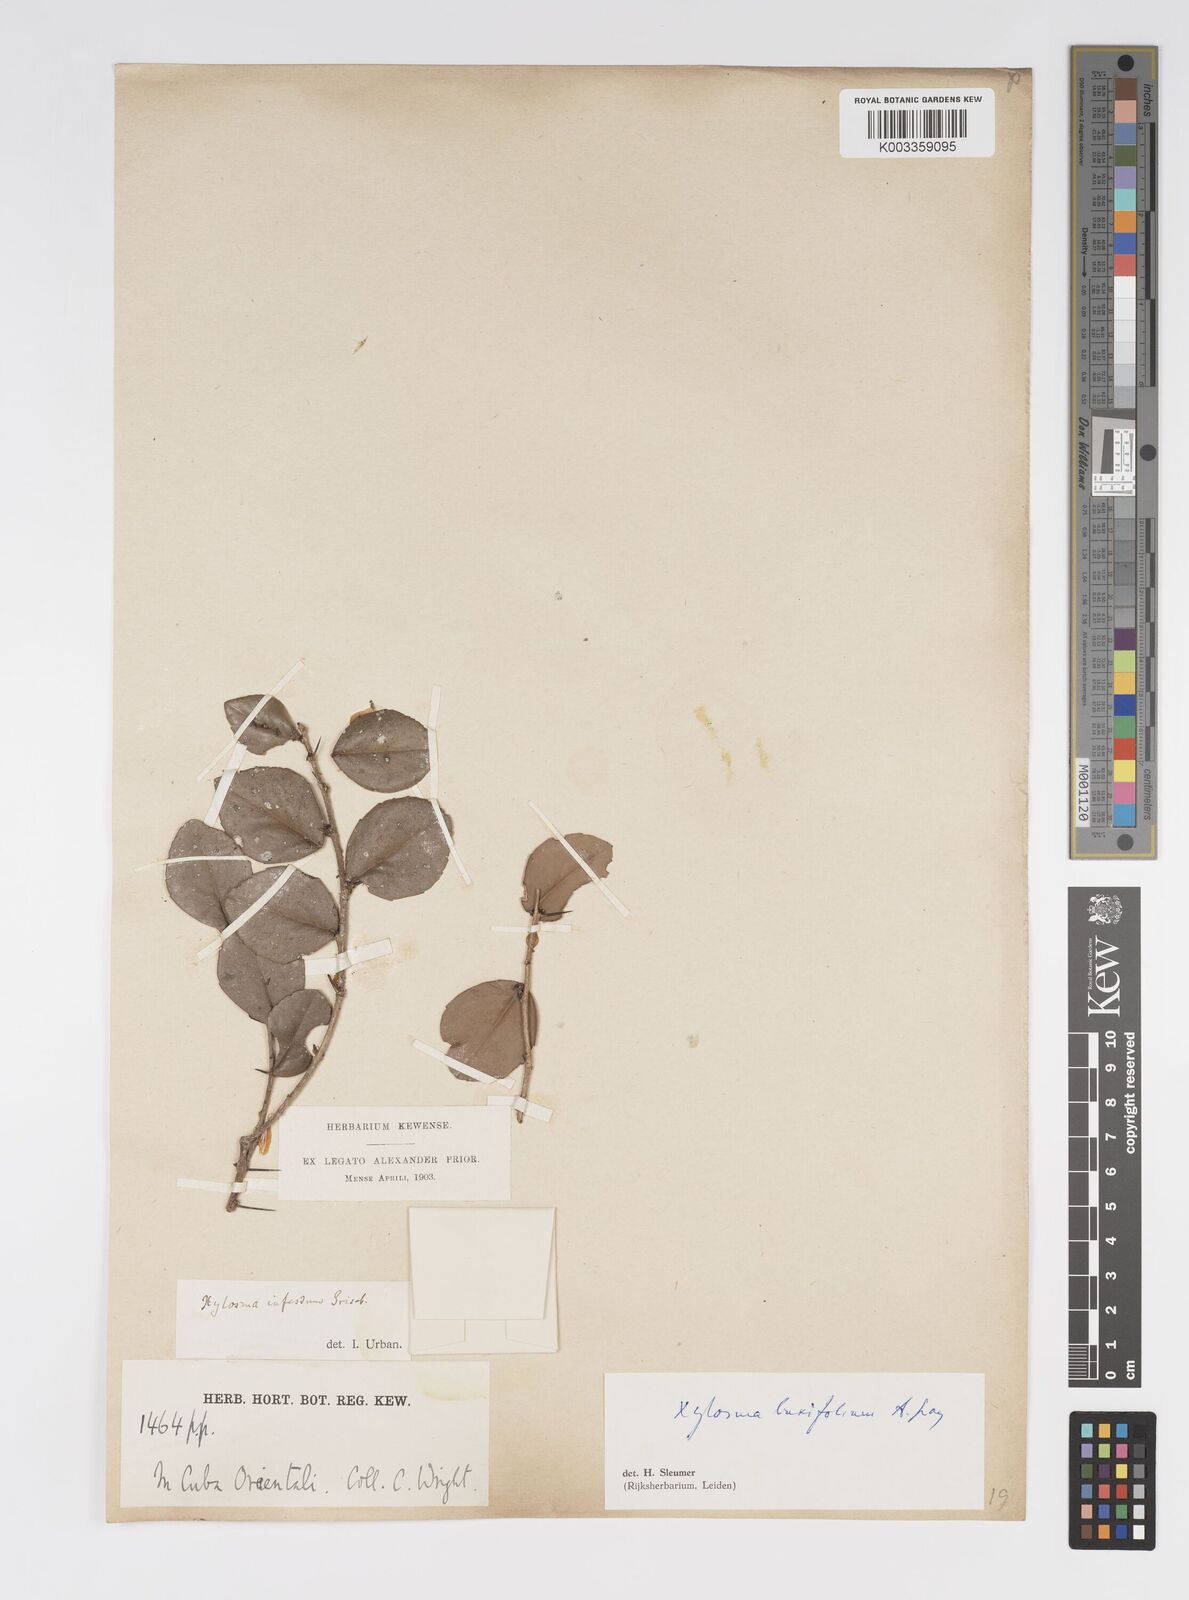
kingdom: Plantae
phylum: Tracheophyta
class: Magnoliopsida
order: Malpighiales
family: Salicaceae
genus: Xylosma
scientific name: Xylosma buxifolia
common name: Cockspur
